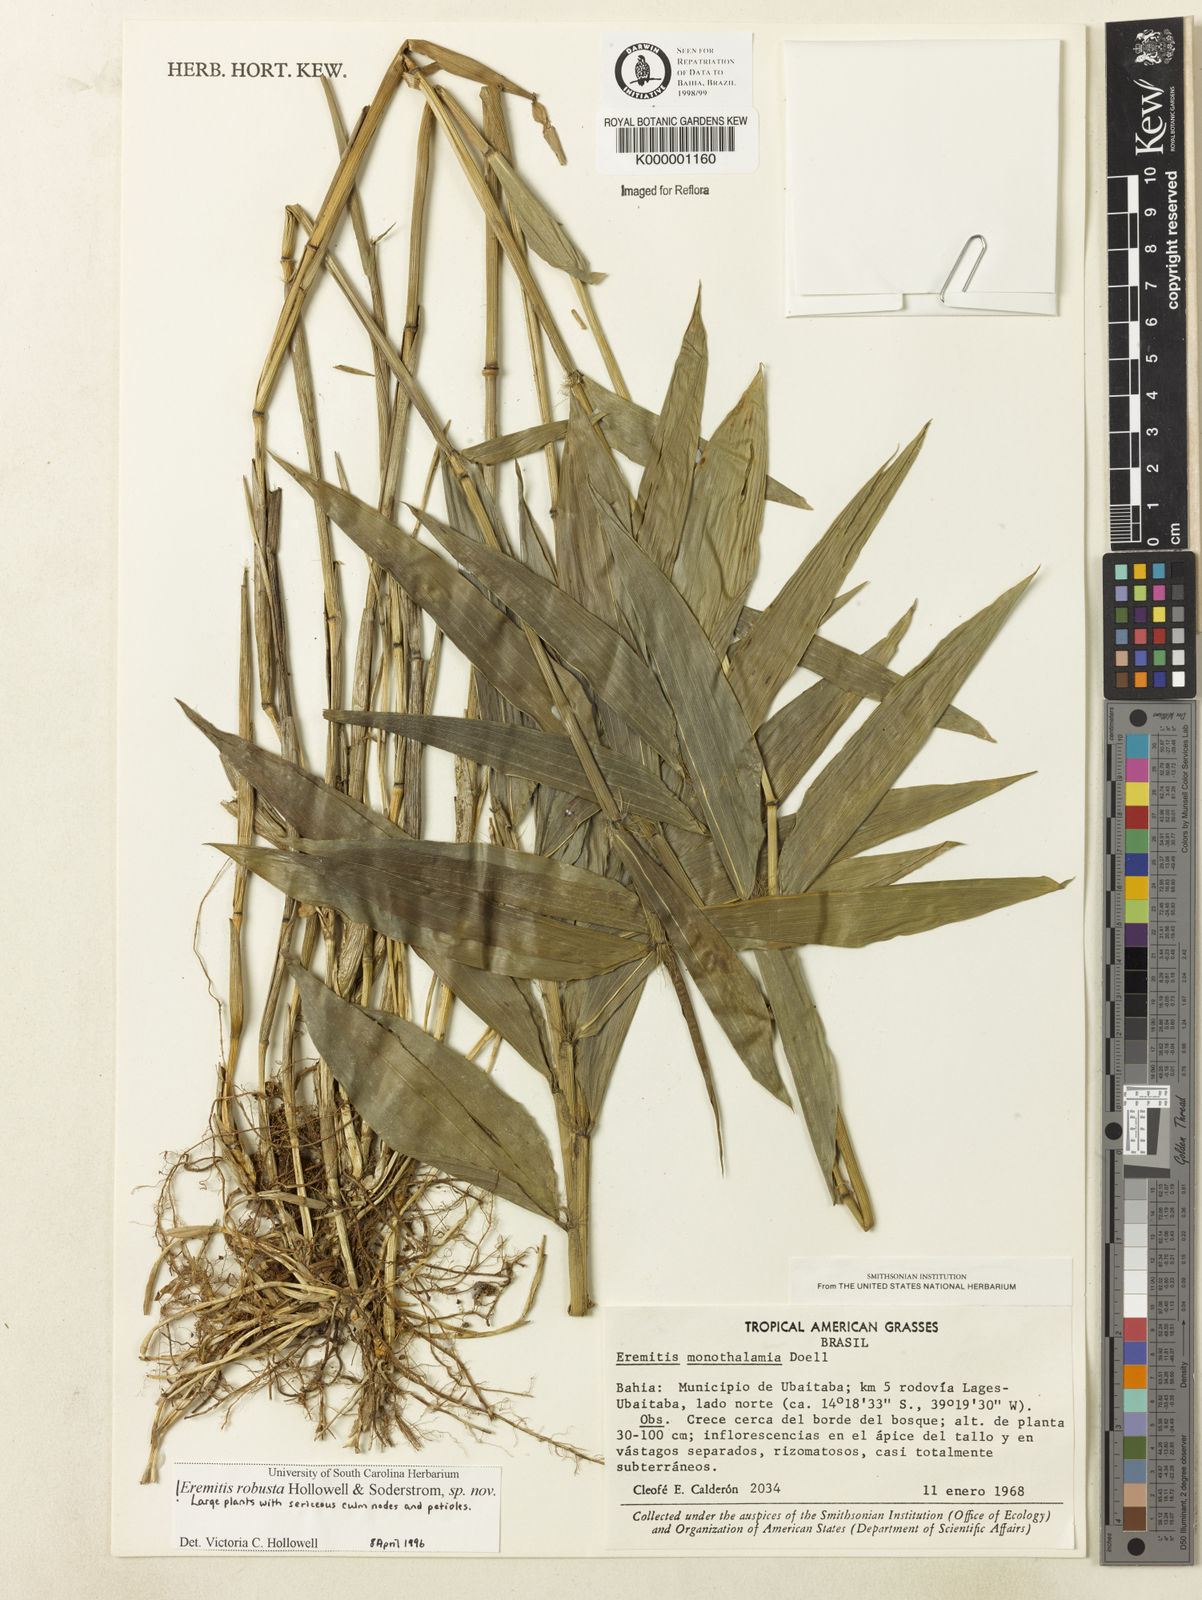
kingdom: Plantae
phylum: Tracheophyta
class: Liliopsida
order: Poales
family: Poaceae
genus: Eremitis
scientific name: Eremitis
